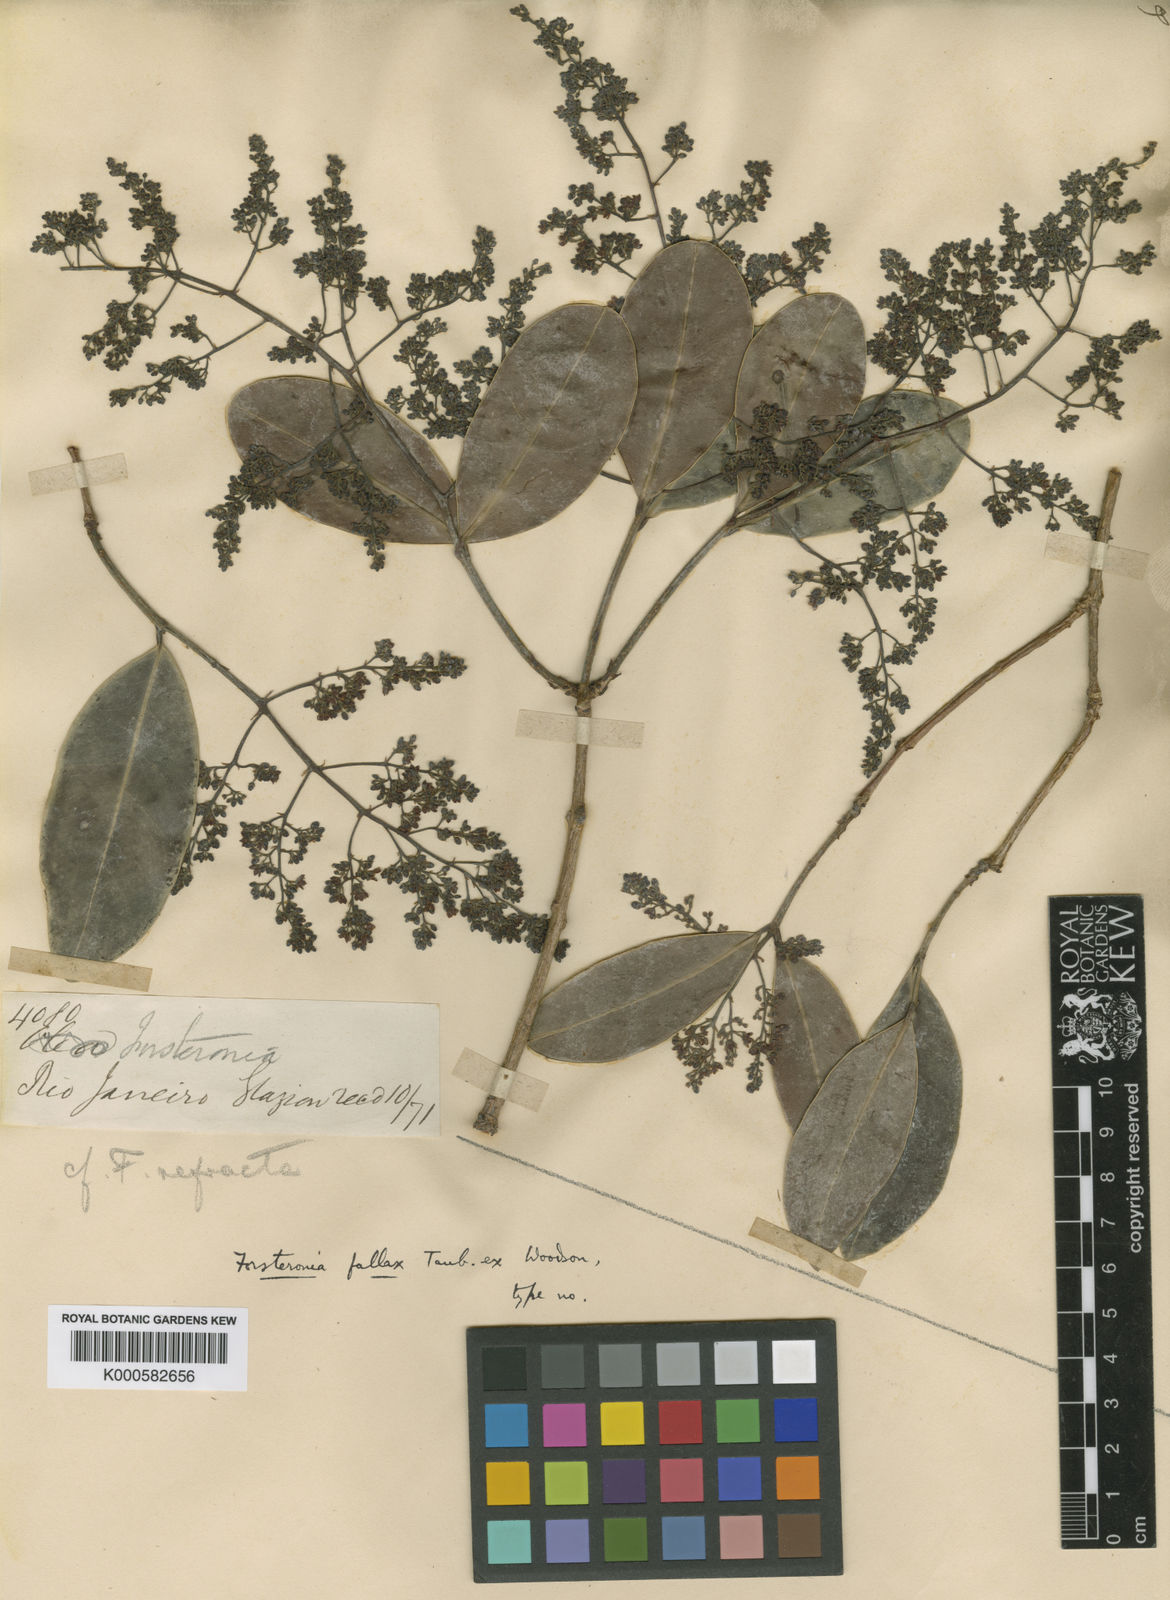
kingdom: Plantae
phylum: Tracheophyta
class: Magnoliopsida
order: Gentianales
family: Apocynaceae
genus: Forsteronia
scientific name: Forsteronia
